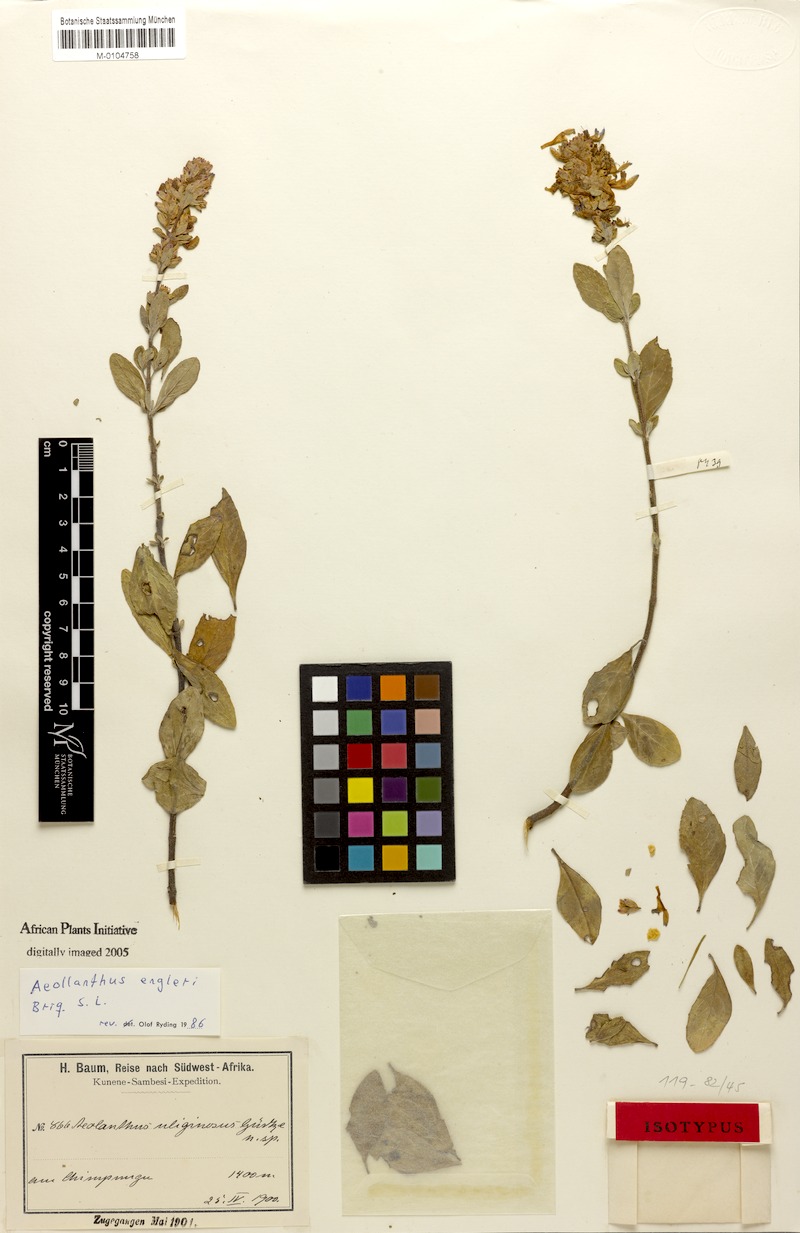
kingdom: Plantae
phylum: Tracheophyta
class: Magnoliopsida
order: Lamiales
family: Lamiaceae
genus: Aeollanthus
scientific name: Aeollanthus engleri
